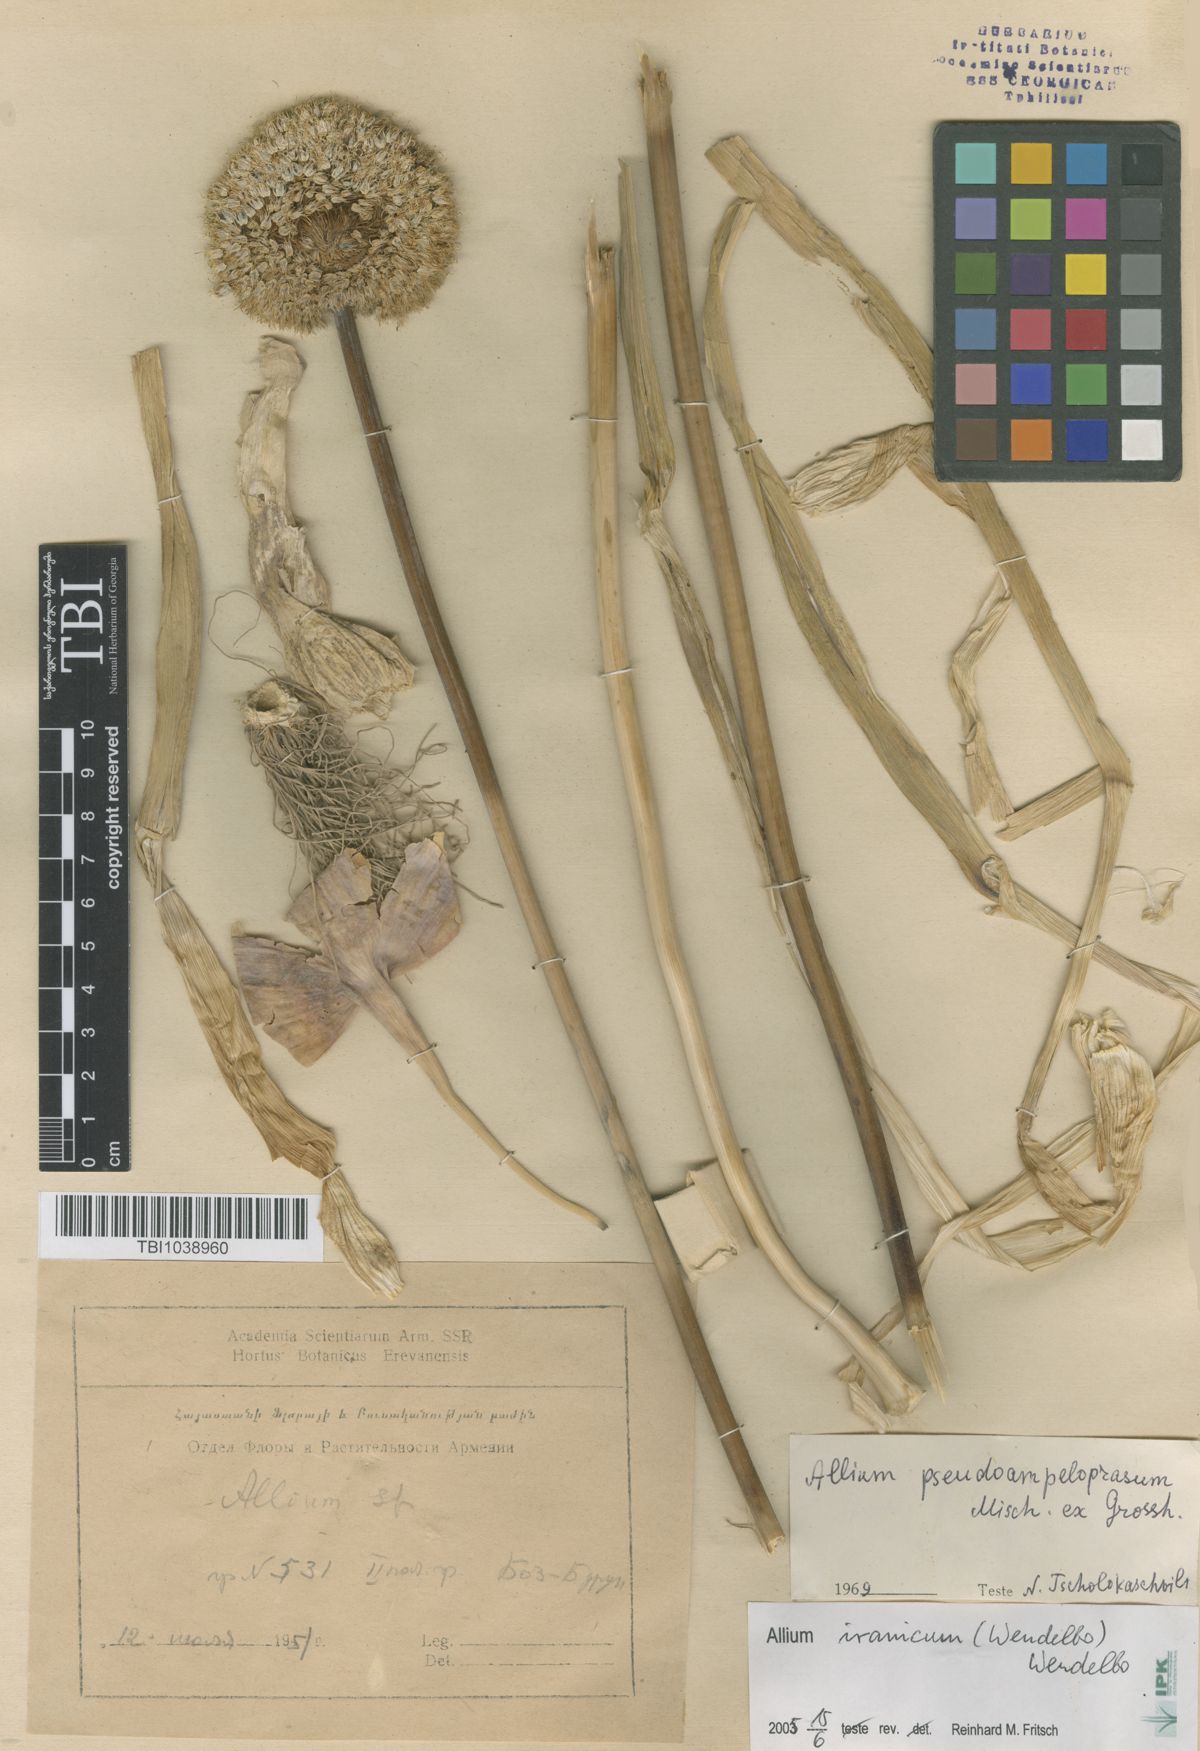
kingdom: Plantae
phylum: Tracheophyta
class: Liliopsida
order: Asparagales
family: Amaryllidaceae
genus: Allium
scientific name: Allium pseudoampeloprasum
